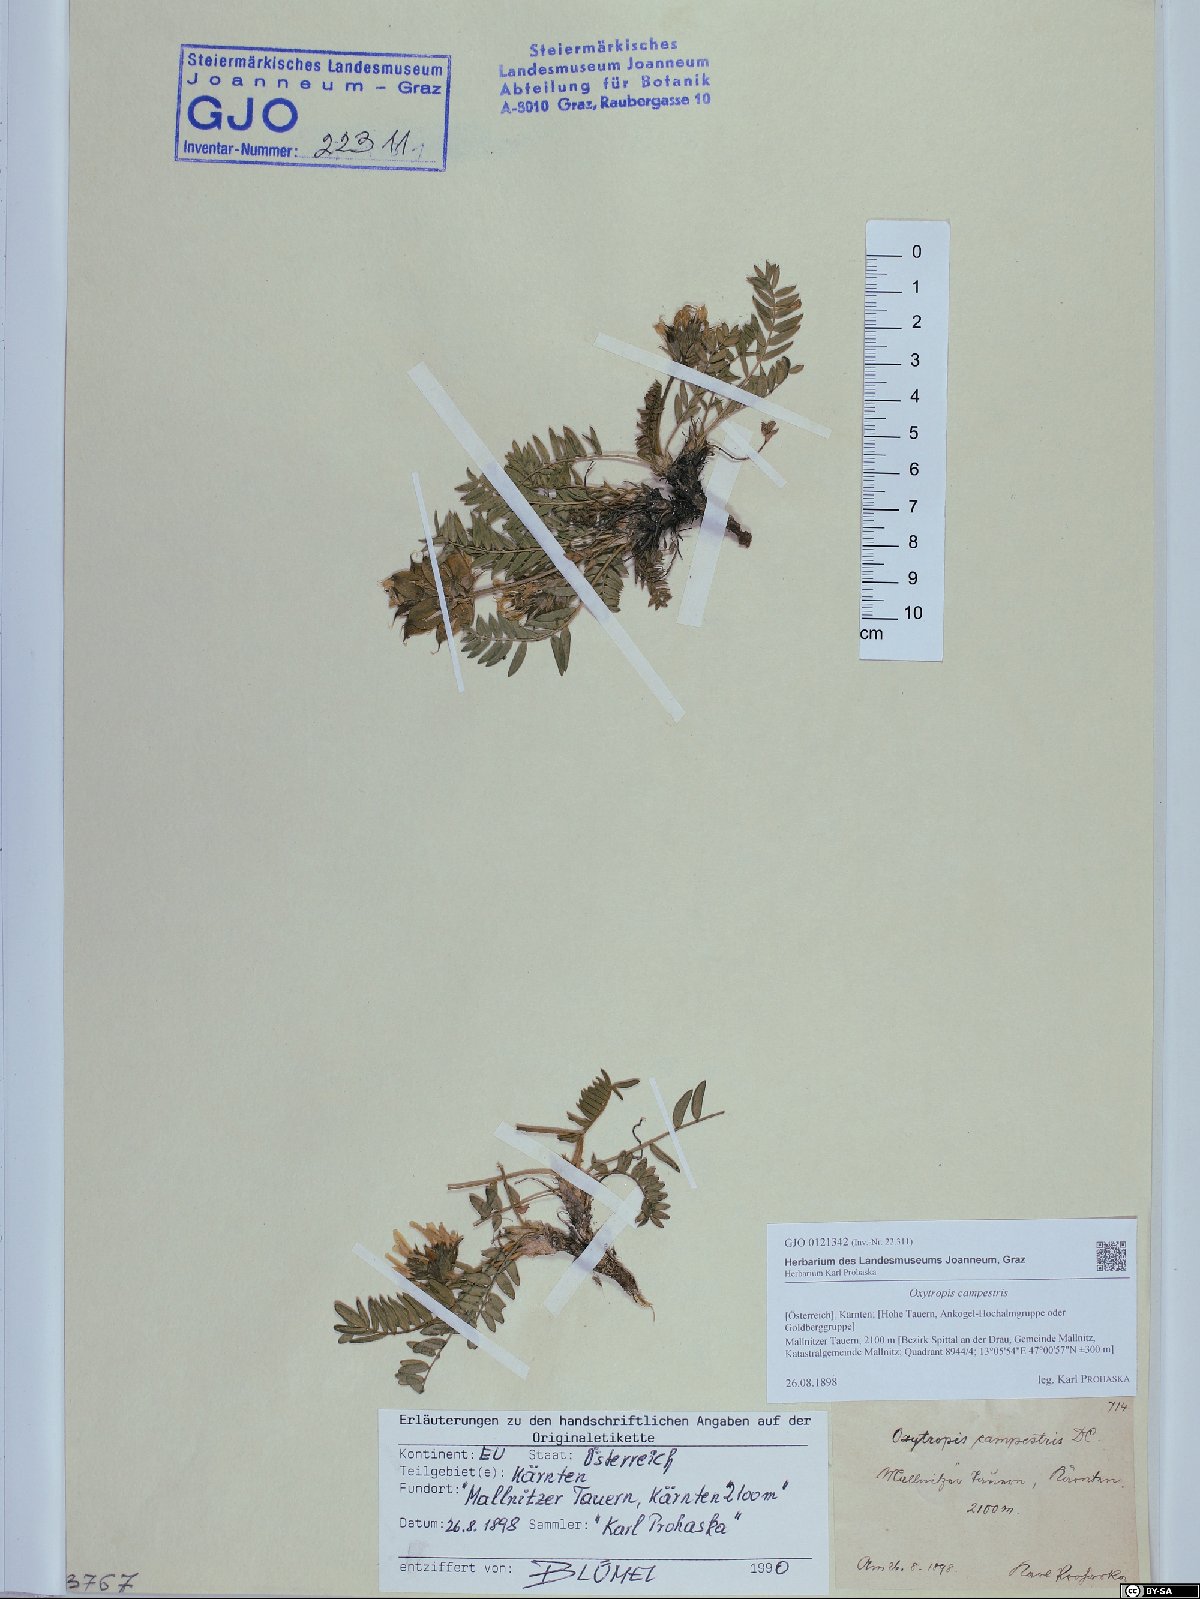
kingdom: Plantae
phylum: Tracheophyta
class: Magnoliopsida
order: Fabales
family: Fabaceae
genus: Oxytropis
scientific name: Oxytropis campestris
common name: Field locoweed
